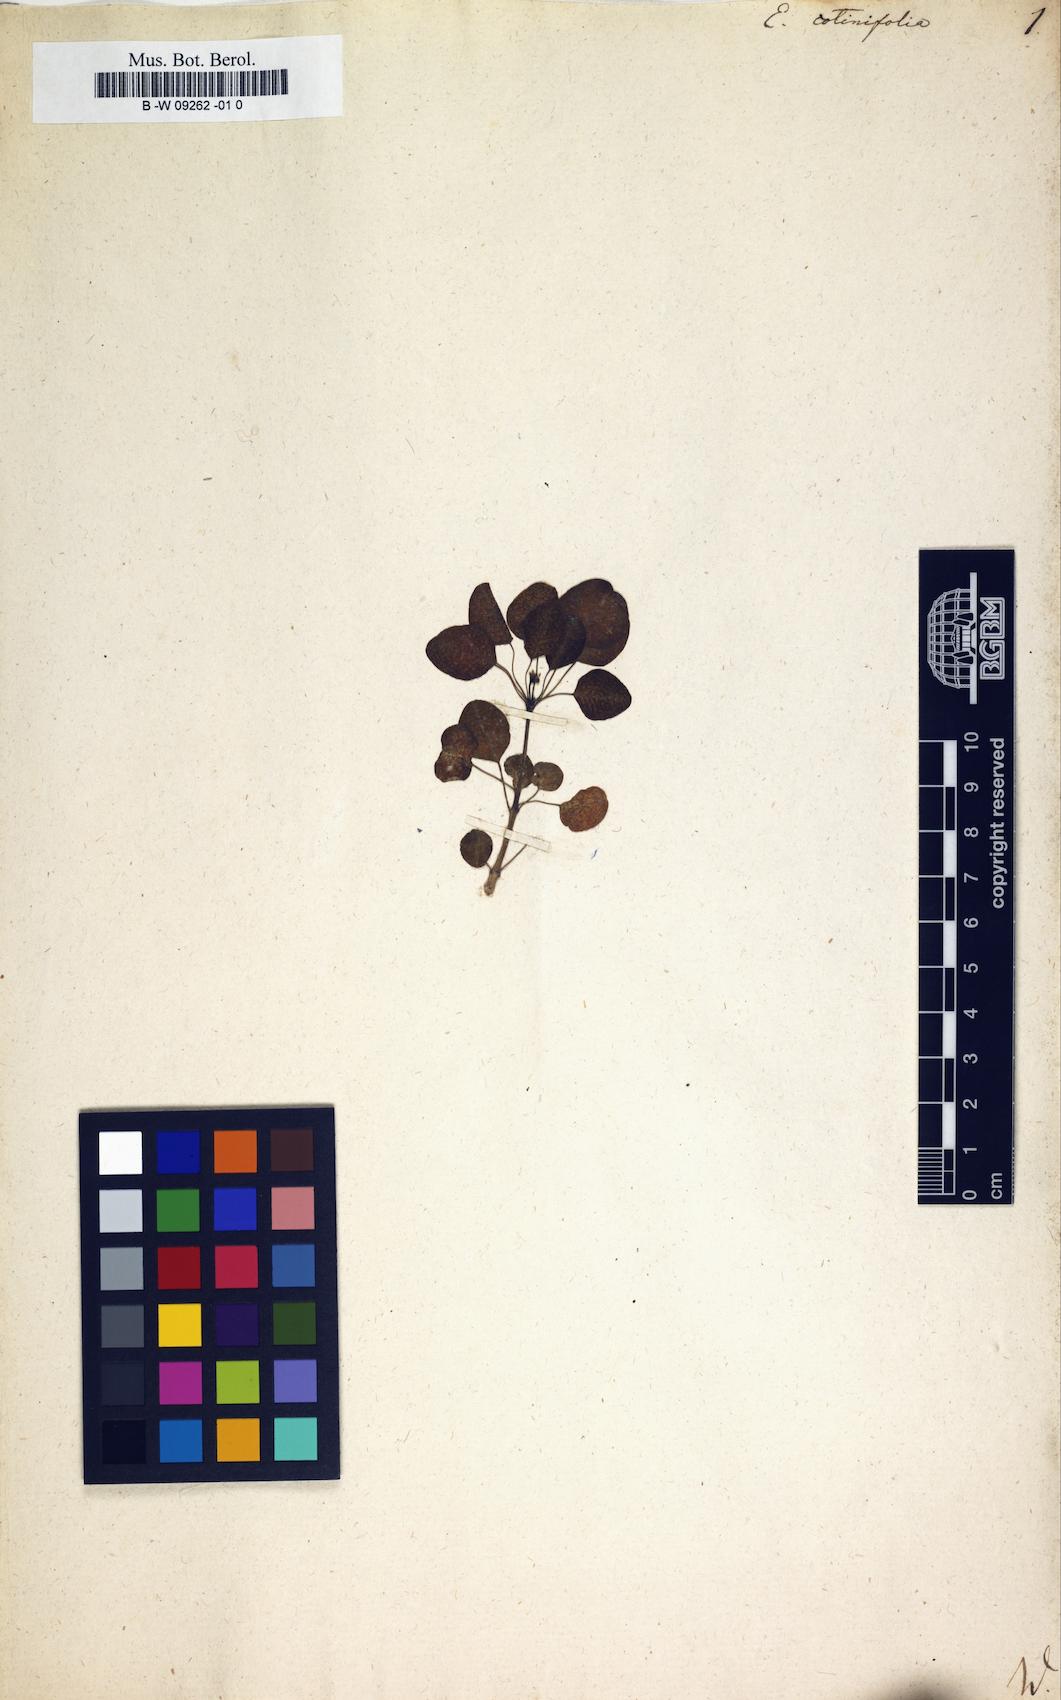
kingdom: Plantae
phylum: Tracheophyta
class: Magnoliopsida
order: Malpighiales
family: Euphorbiaceae
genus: Euphorbia
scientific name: Euphorbia cotinifolia
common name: Tropical smokebush
